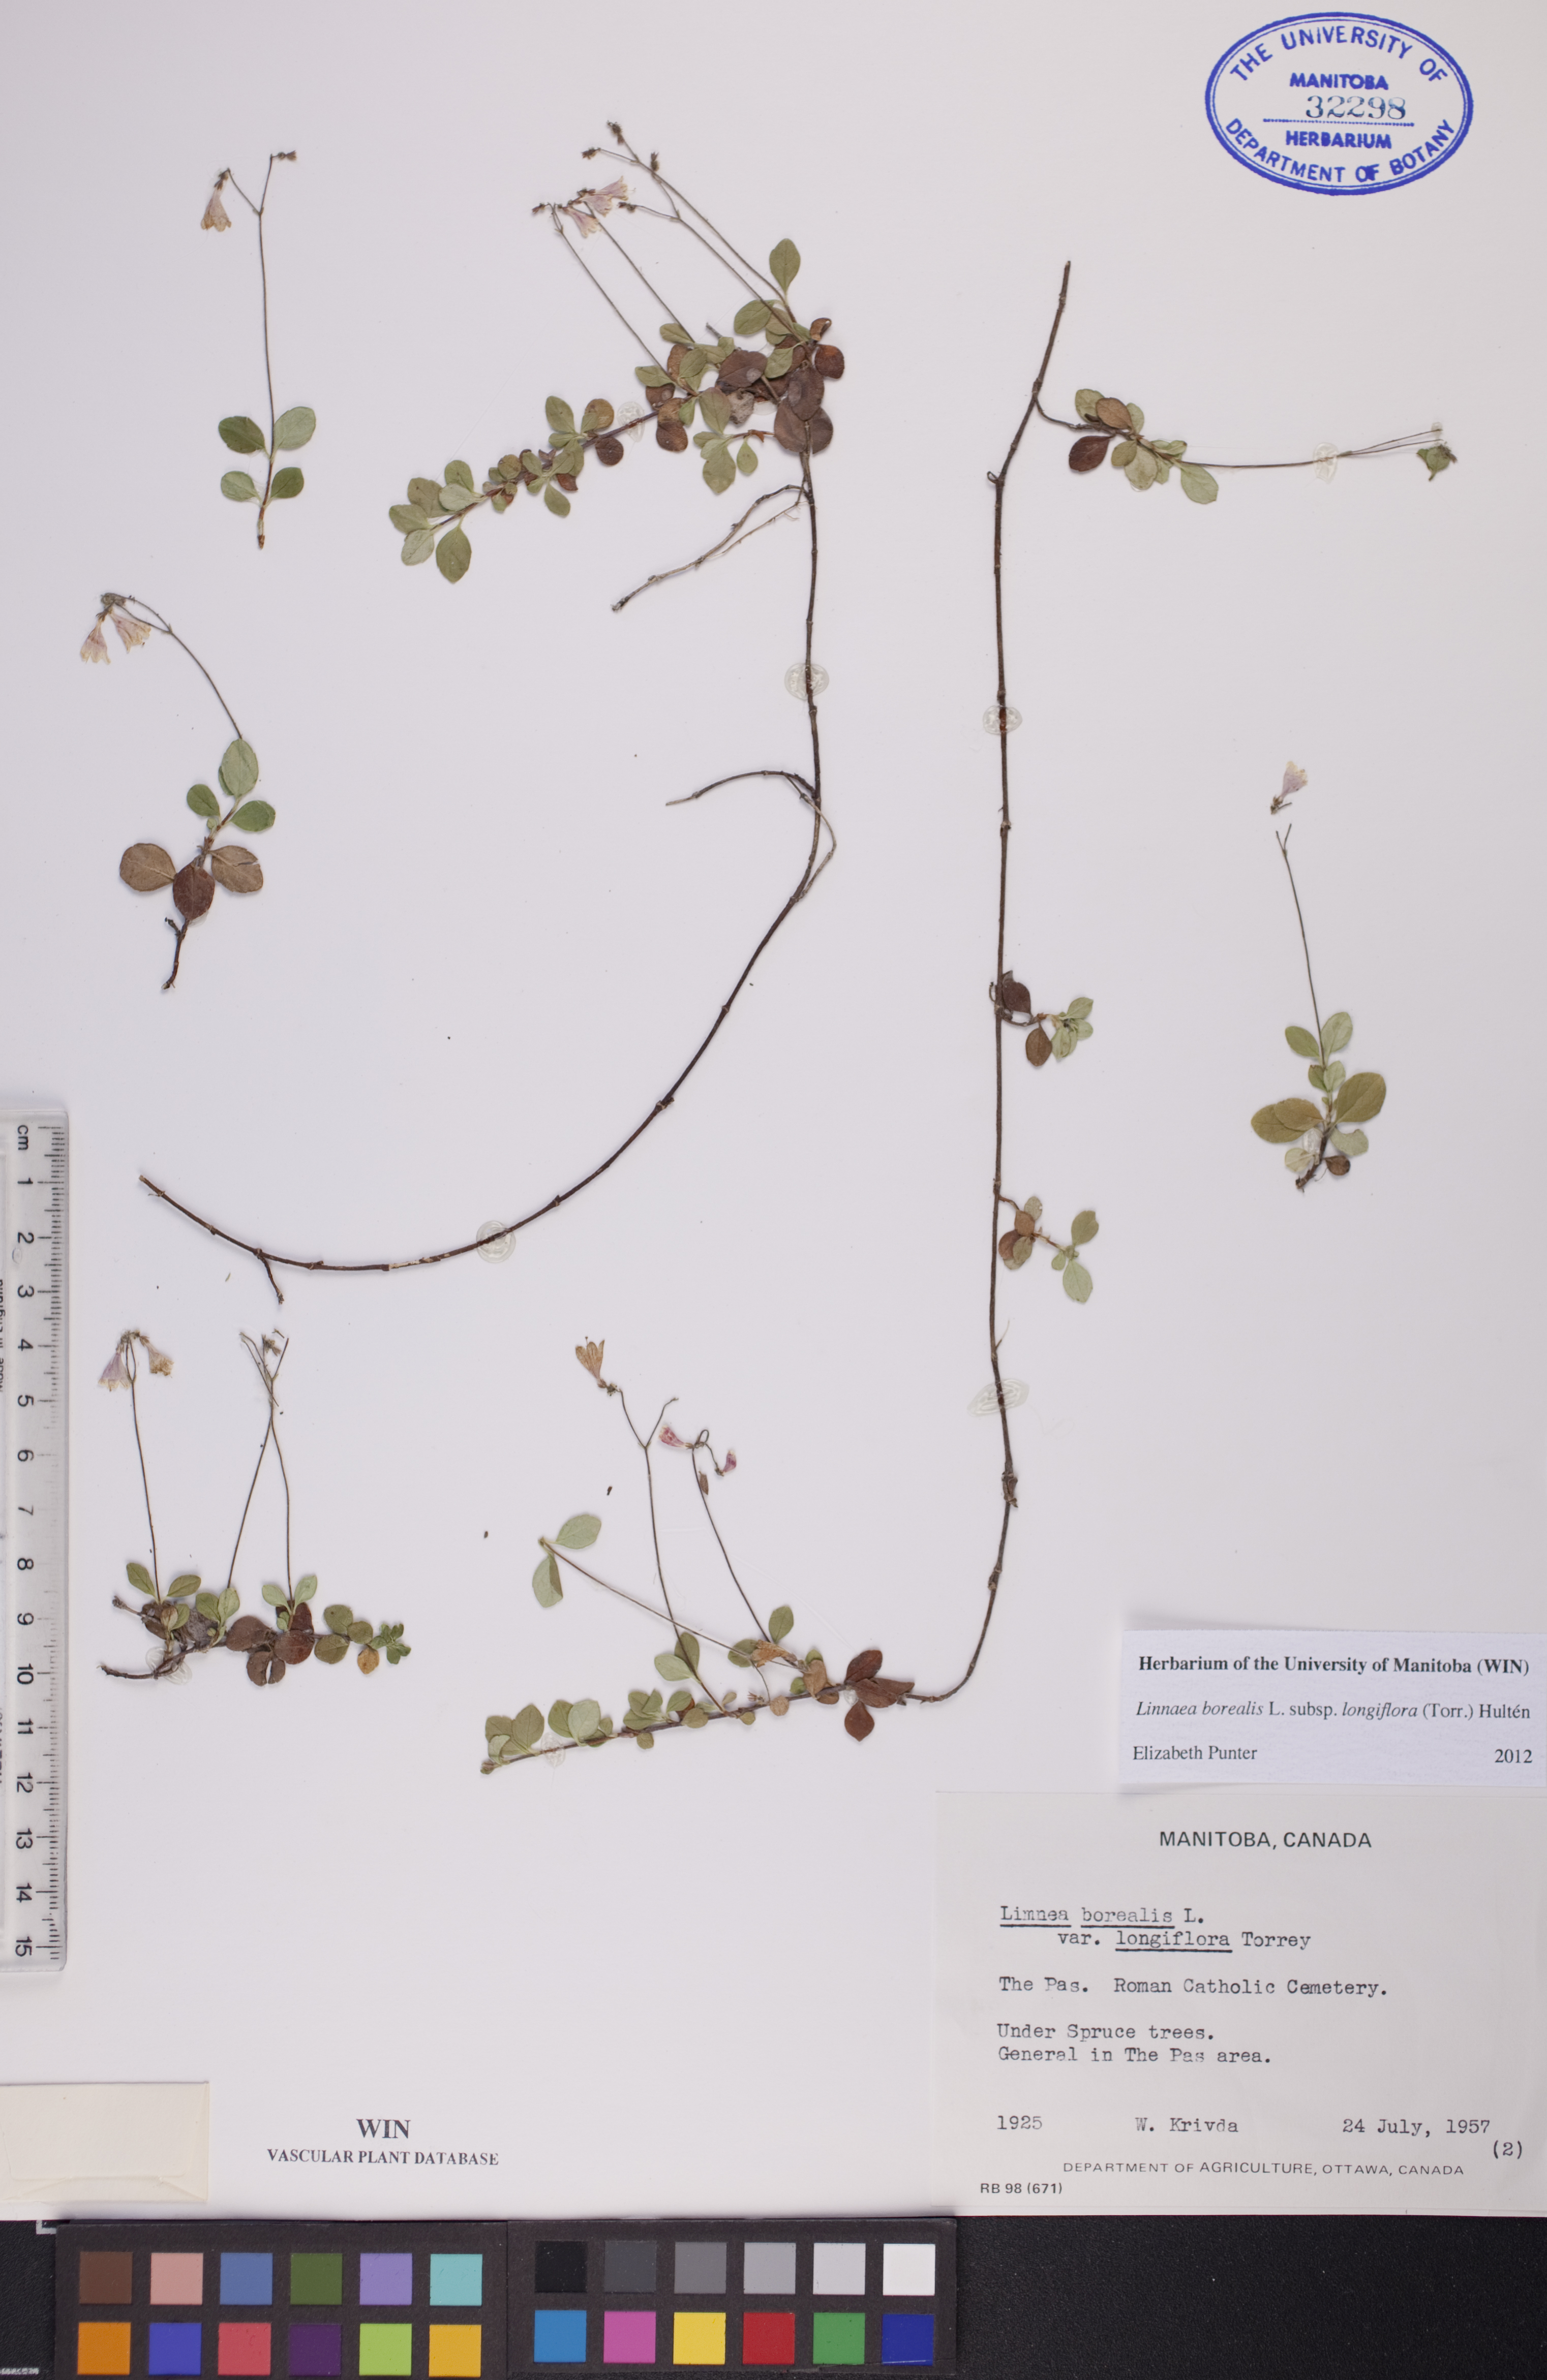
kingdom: Plantae
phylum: Tracheophyta
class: Magnoliopsida
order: Dipsacales
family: Caprifoliaceae
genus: Linnaea
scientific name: Linnaea borealis
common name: Twinflower
